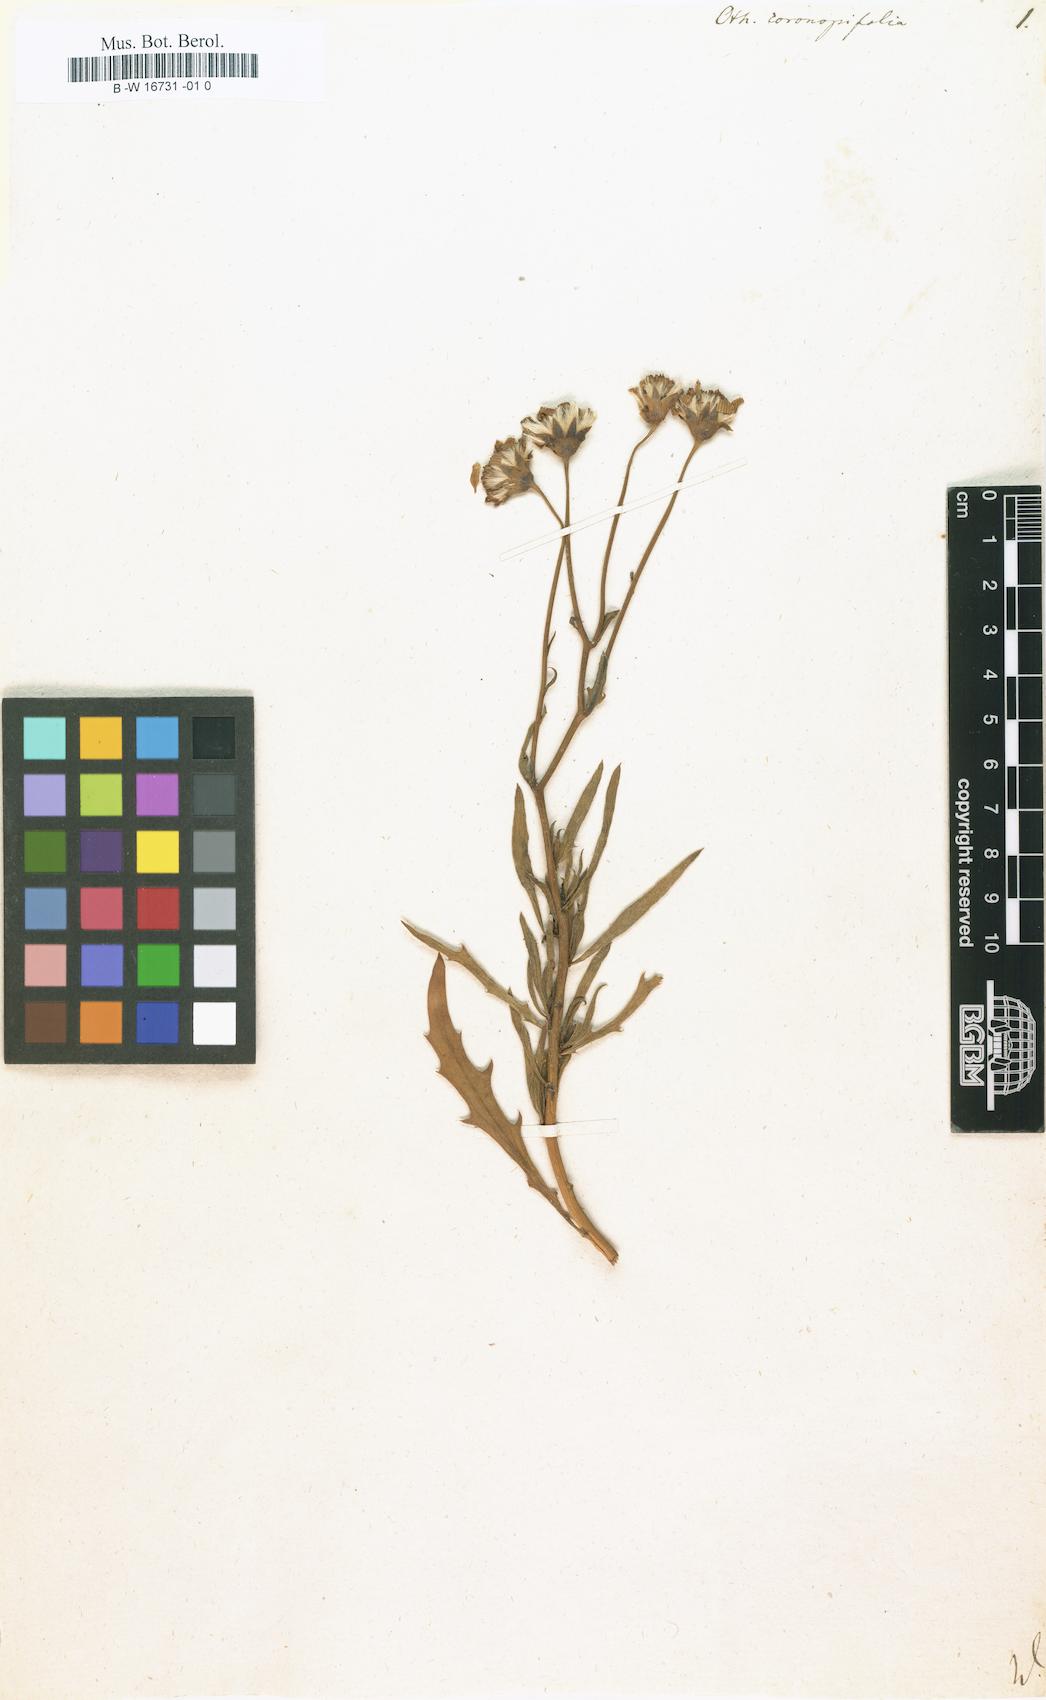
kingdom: Plantae
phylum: Tracheophyta
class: Magnoliopsida
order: Asterales
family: Asteraceae
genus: Othonna
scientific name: Othonna coronopifolia
